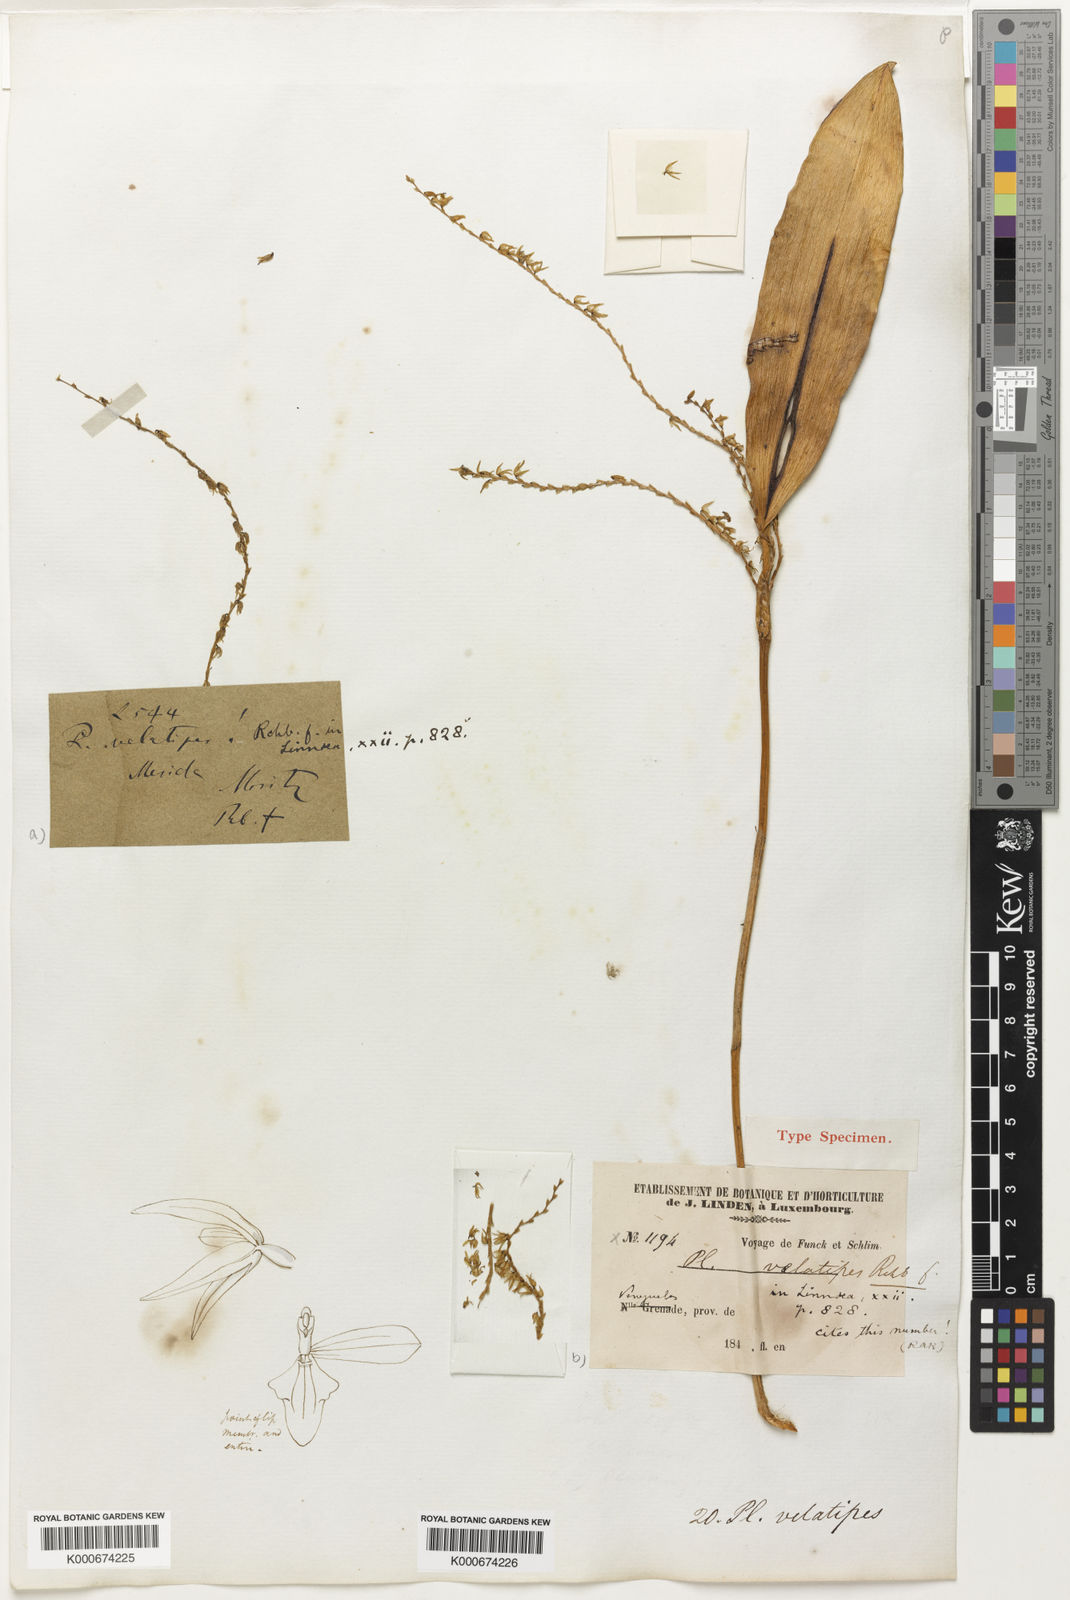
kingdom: Plantae
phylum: Tracheophyta
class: Liliopsida
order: Asparagales
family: Orchidaceae
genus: Stelis
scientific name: Stelis velatipes
